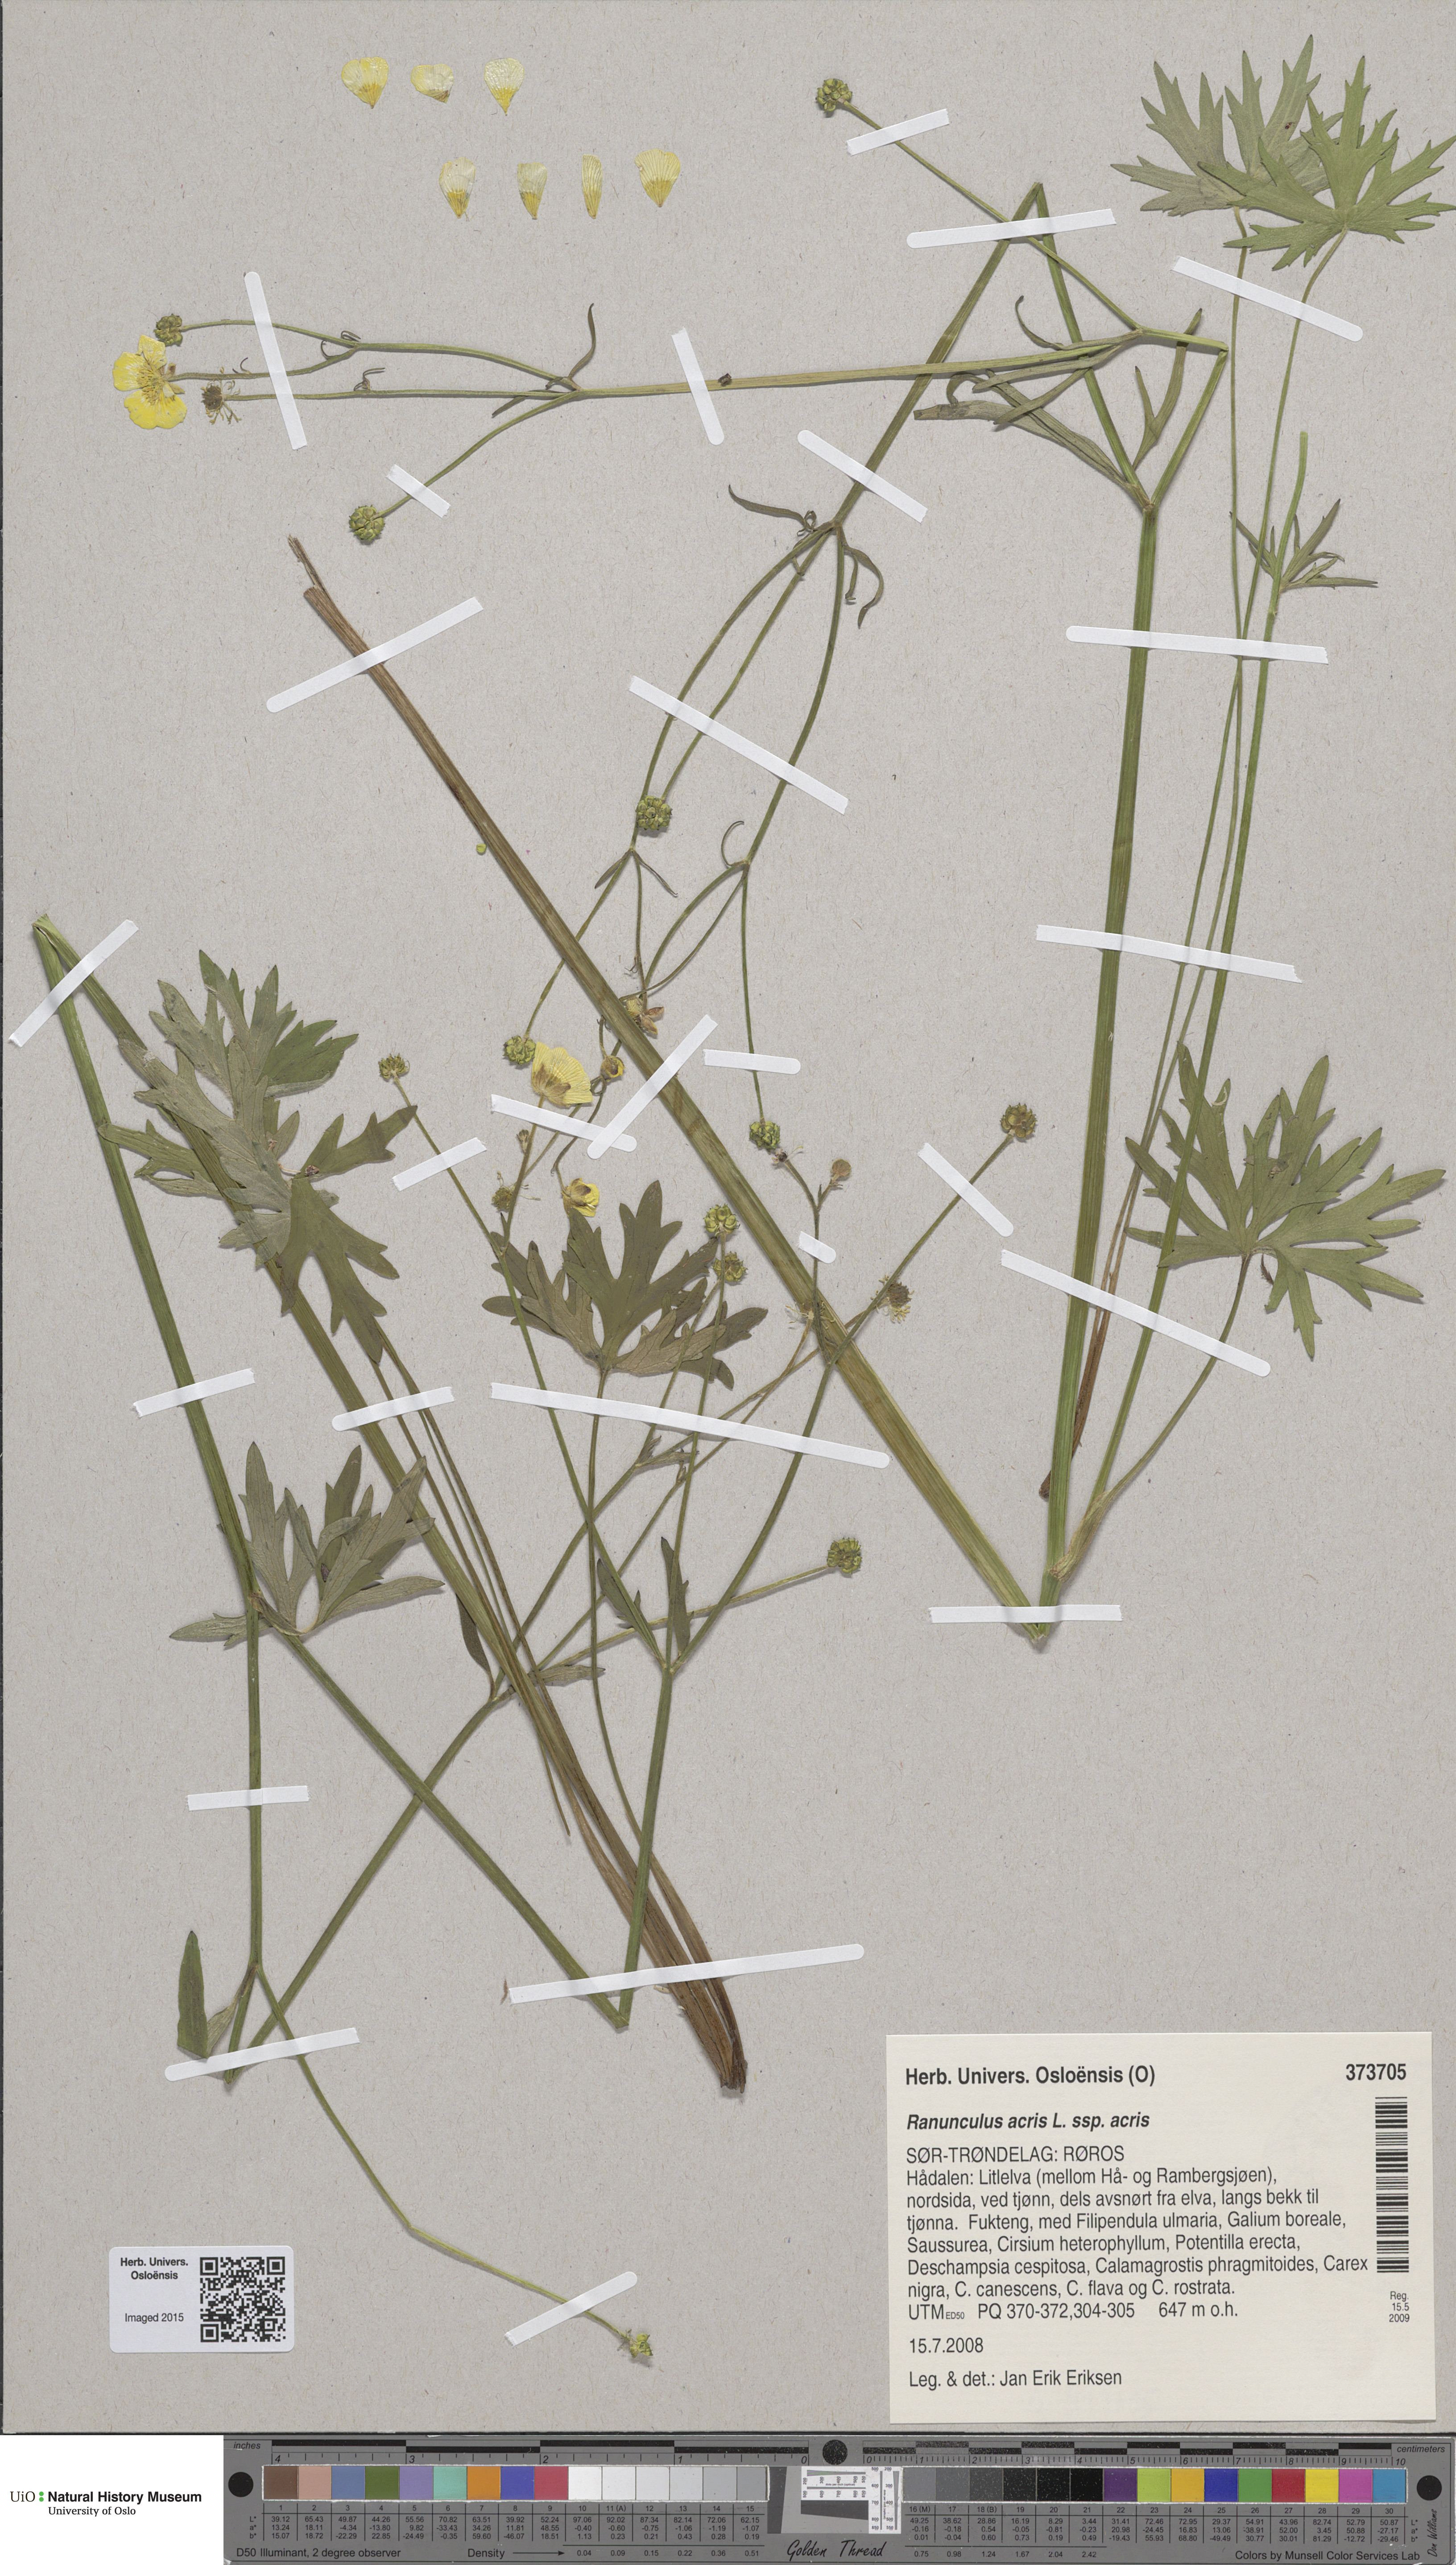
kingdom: Plantae
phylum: Tracheophyta
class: Magnoliopsida
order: Ranunculales
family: Ranunculaceae
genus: Ranunculus
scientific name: Ranunculus acris
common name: Meadow buttercup
